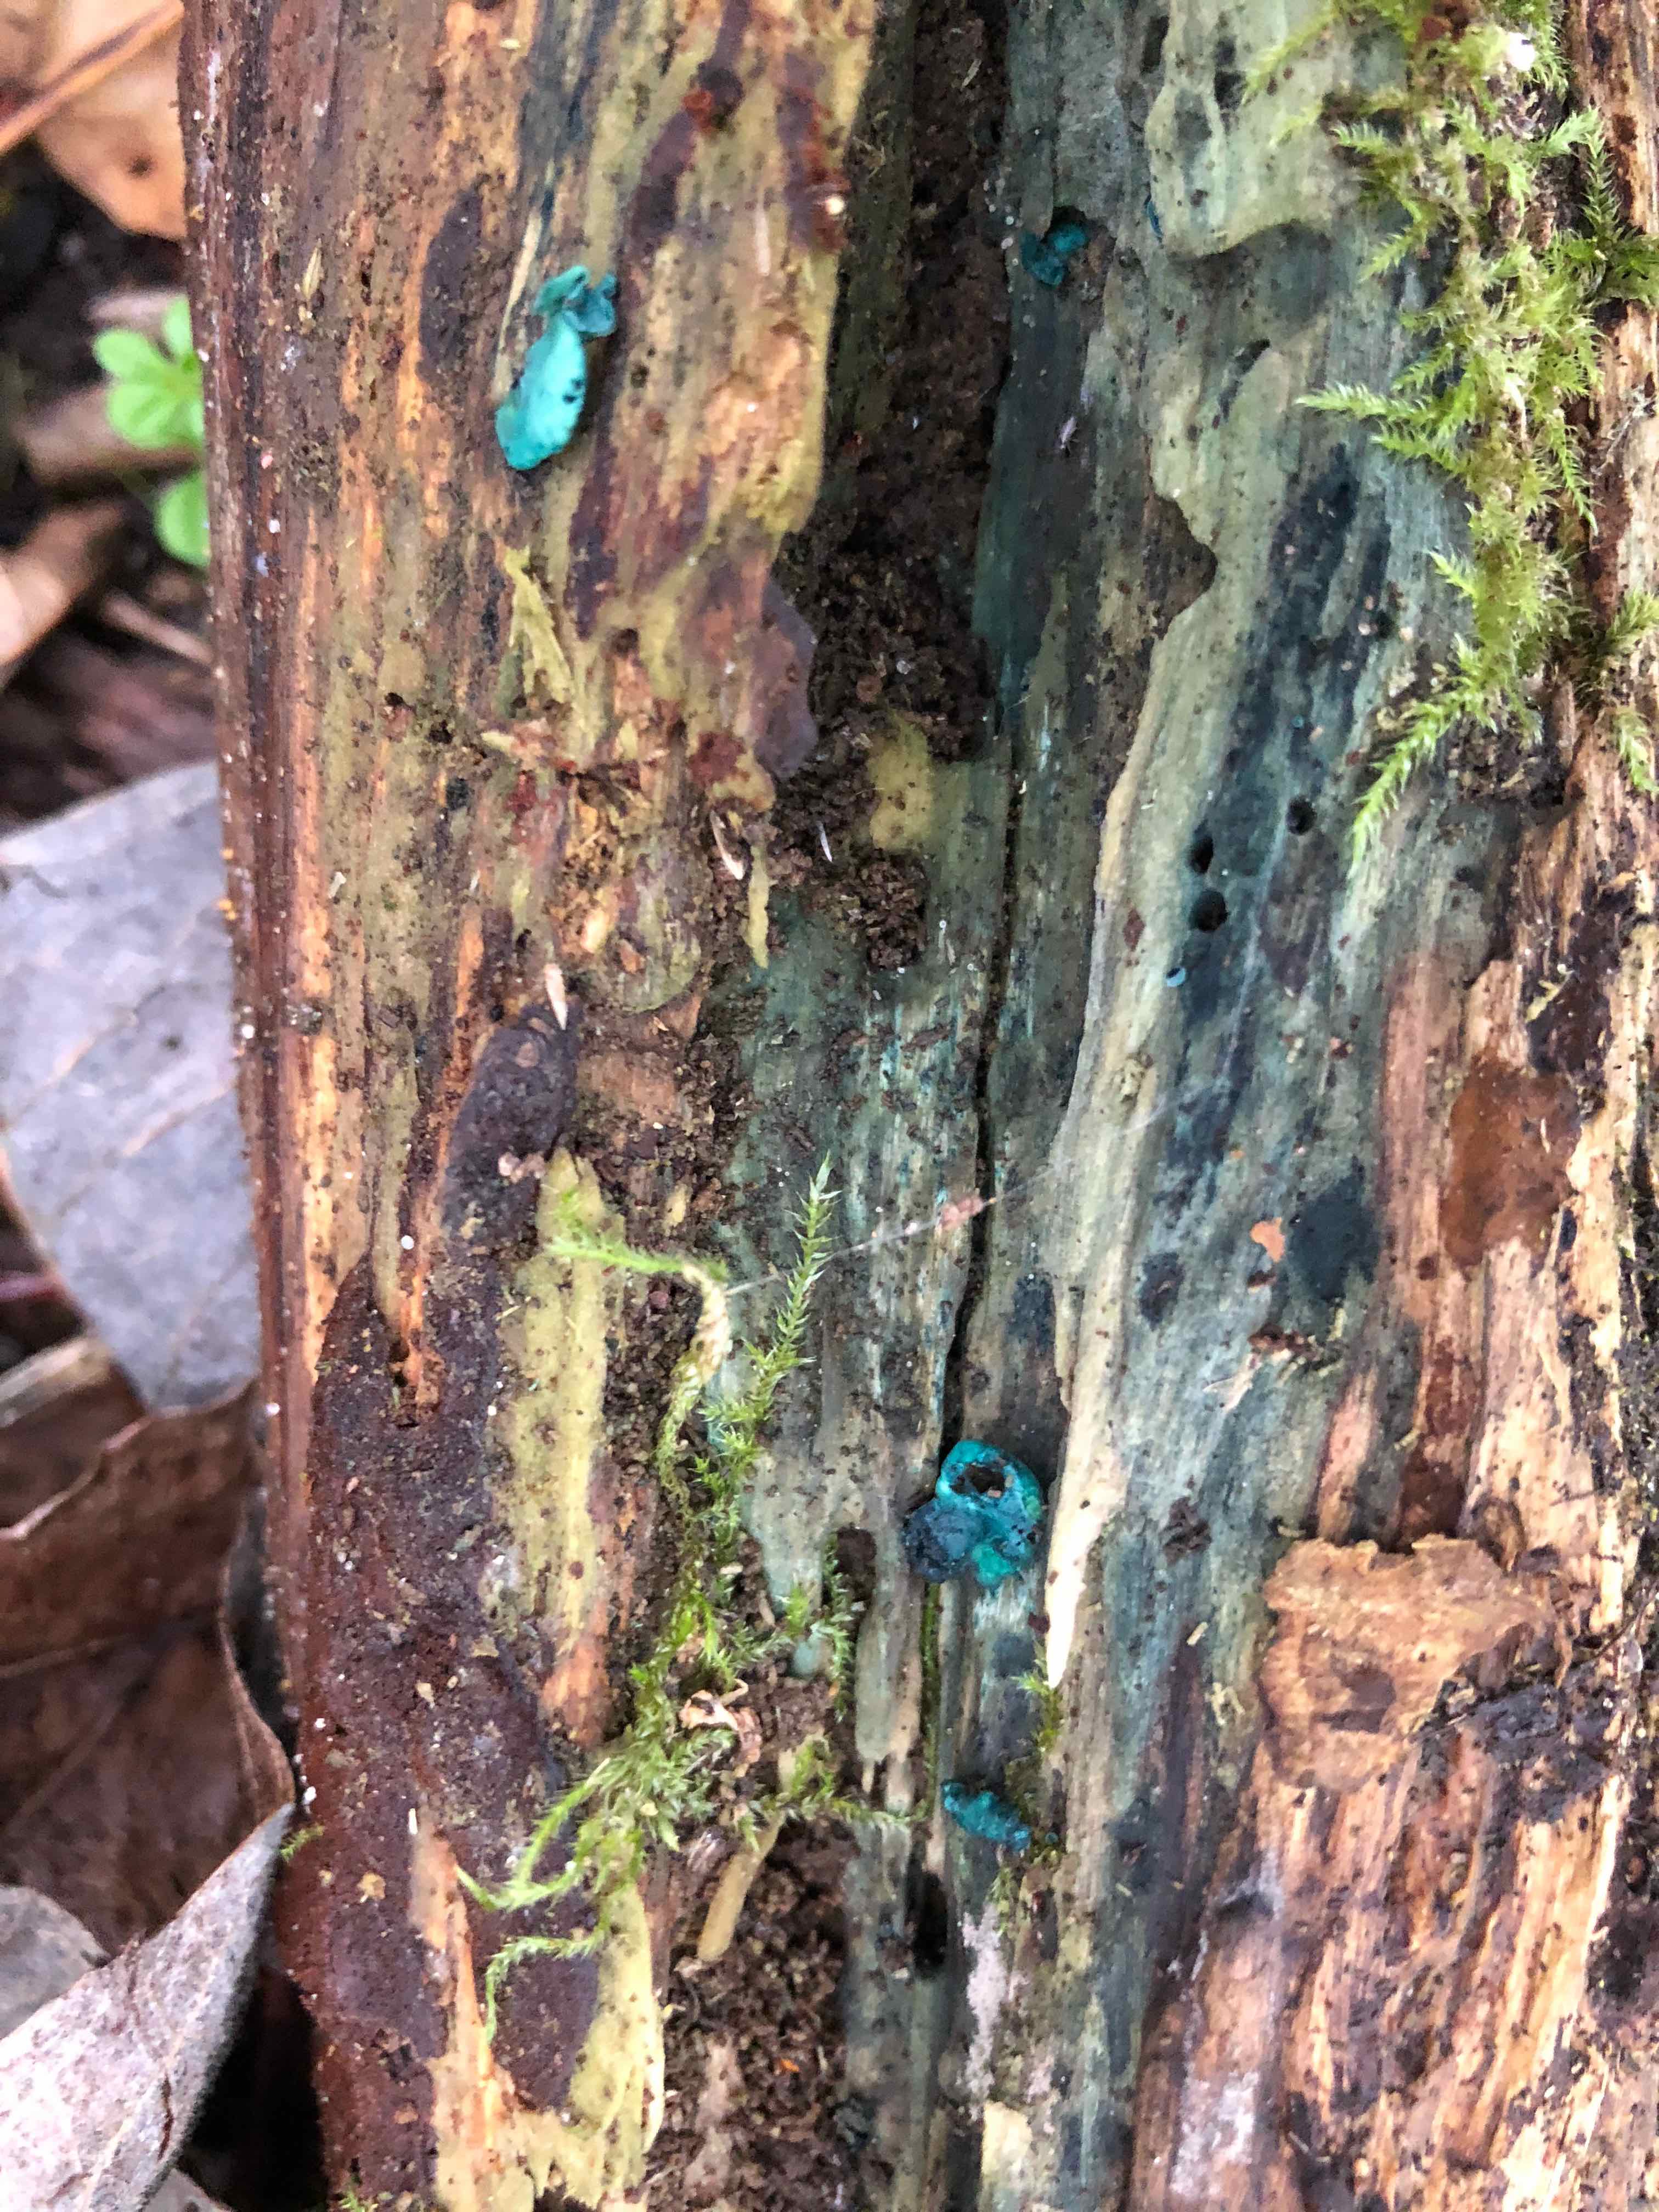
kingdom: Fungi
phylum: Ascomycota
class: Leotiomycetes
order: Helotiales
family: Chlorociboriaceae
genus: Chlorociboria
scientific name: Chlorociboria aeruginascens
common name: almindelig grønskive
